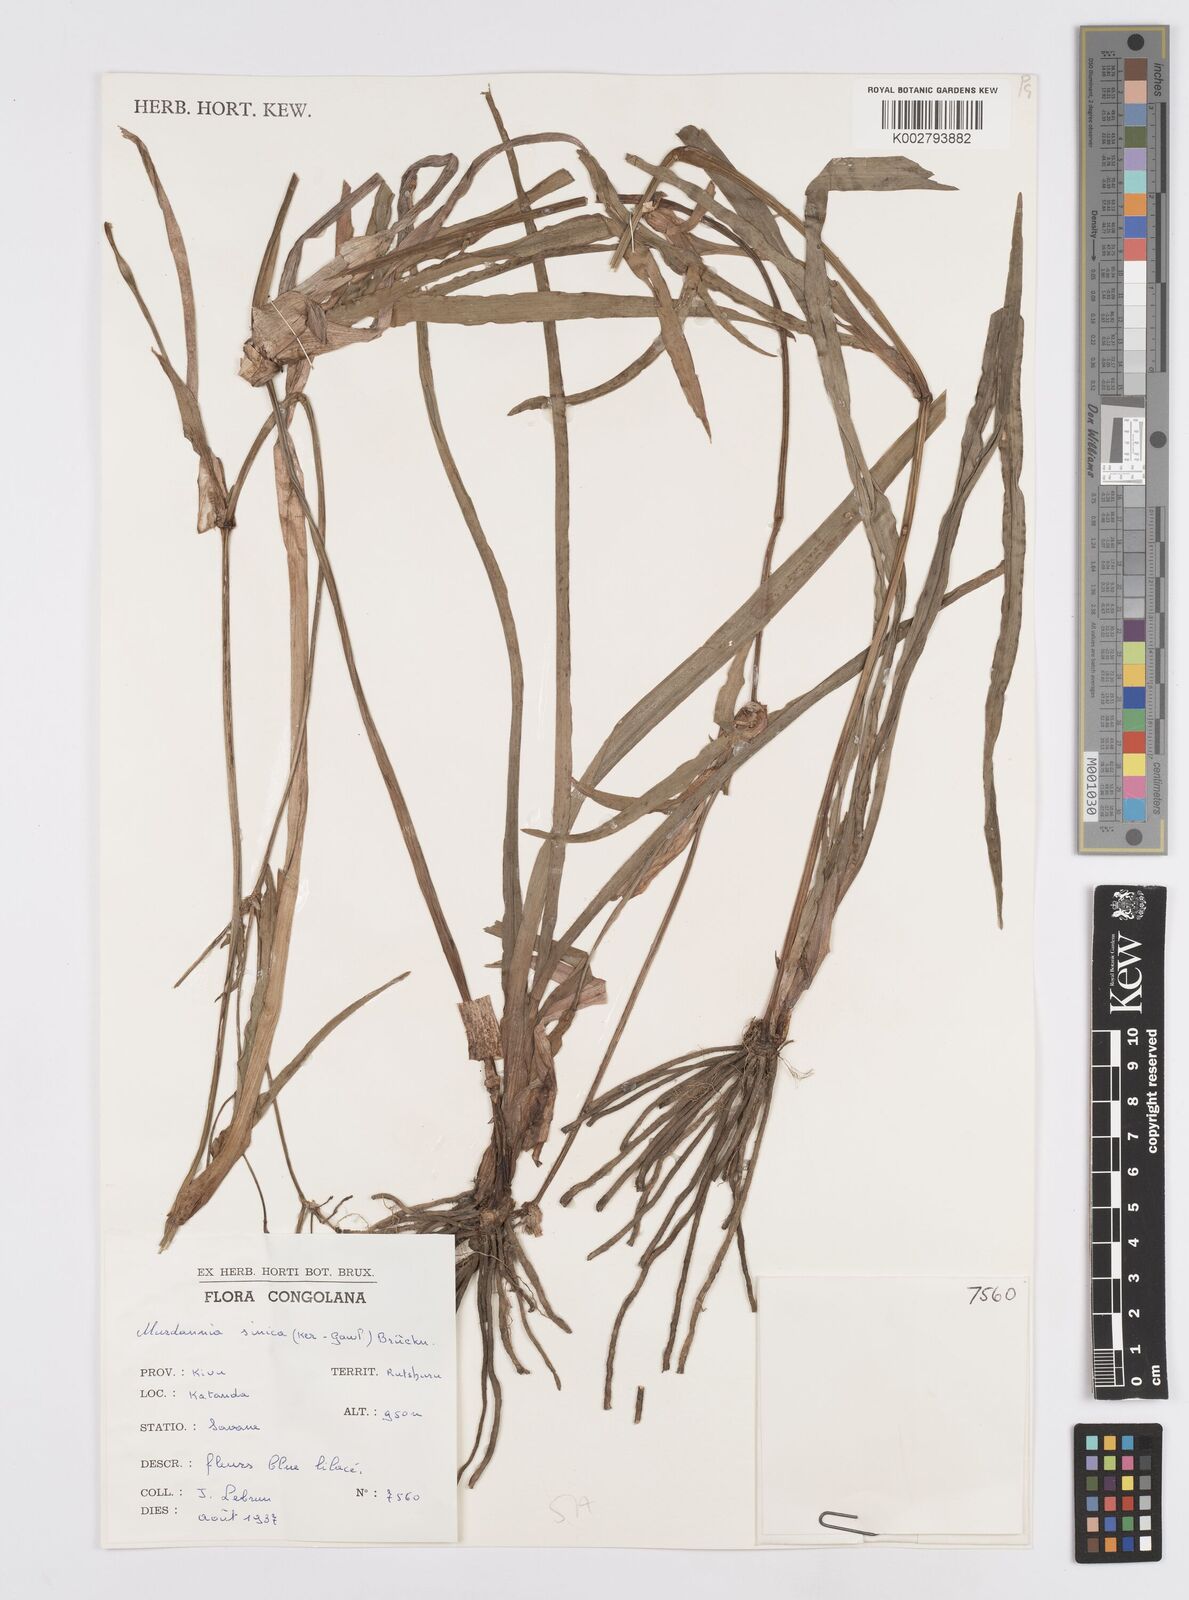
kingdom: Plantae
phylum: Tracheophyta
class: Liliopsida
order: Commelinales
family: Commelinaceae
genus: Murdannia
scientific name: Murdannia simplex
